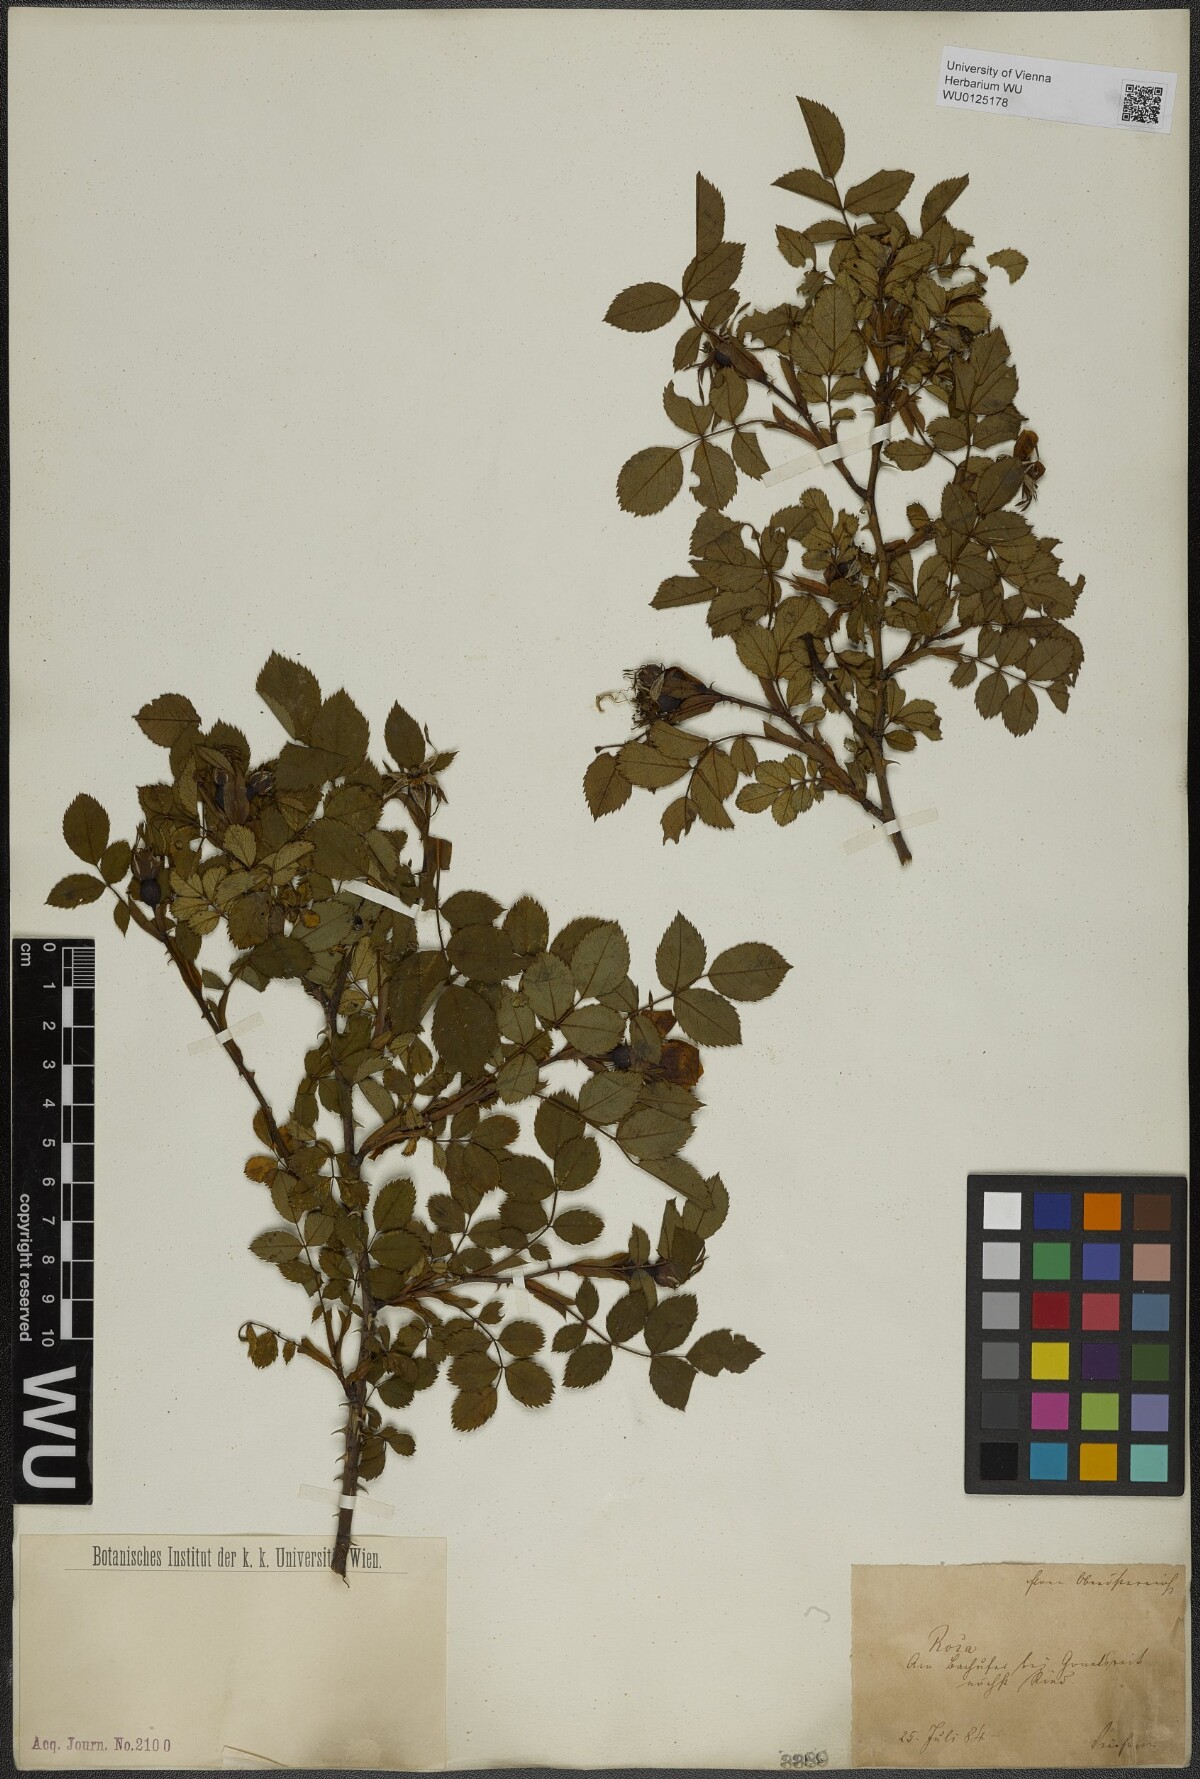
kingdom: Plantae
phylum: Tracheophyta
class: Magnoliopsida
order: Rosales
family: Rosaceae
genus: Rosa
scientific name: Rosa
